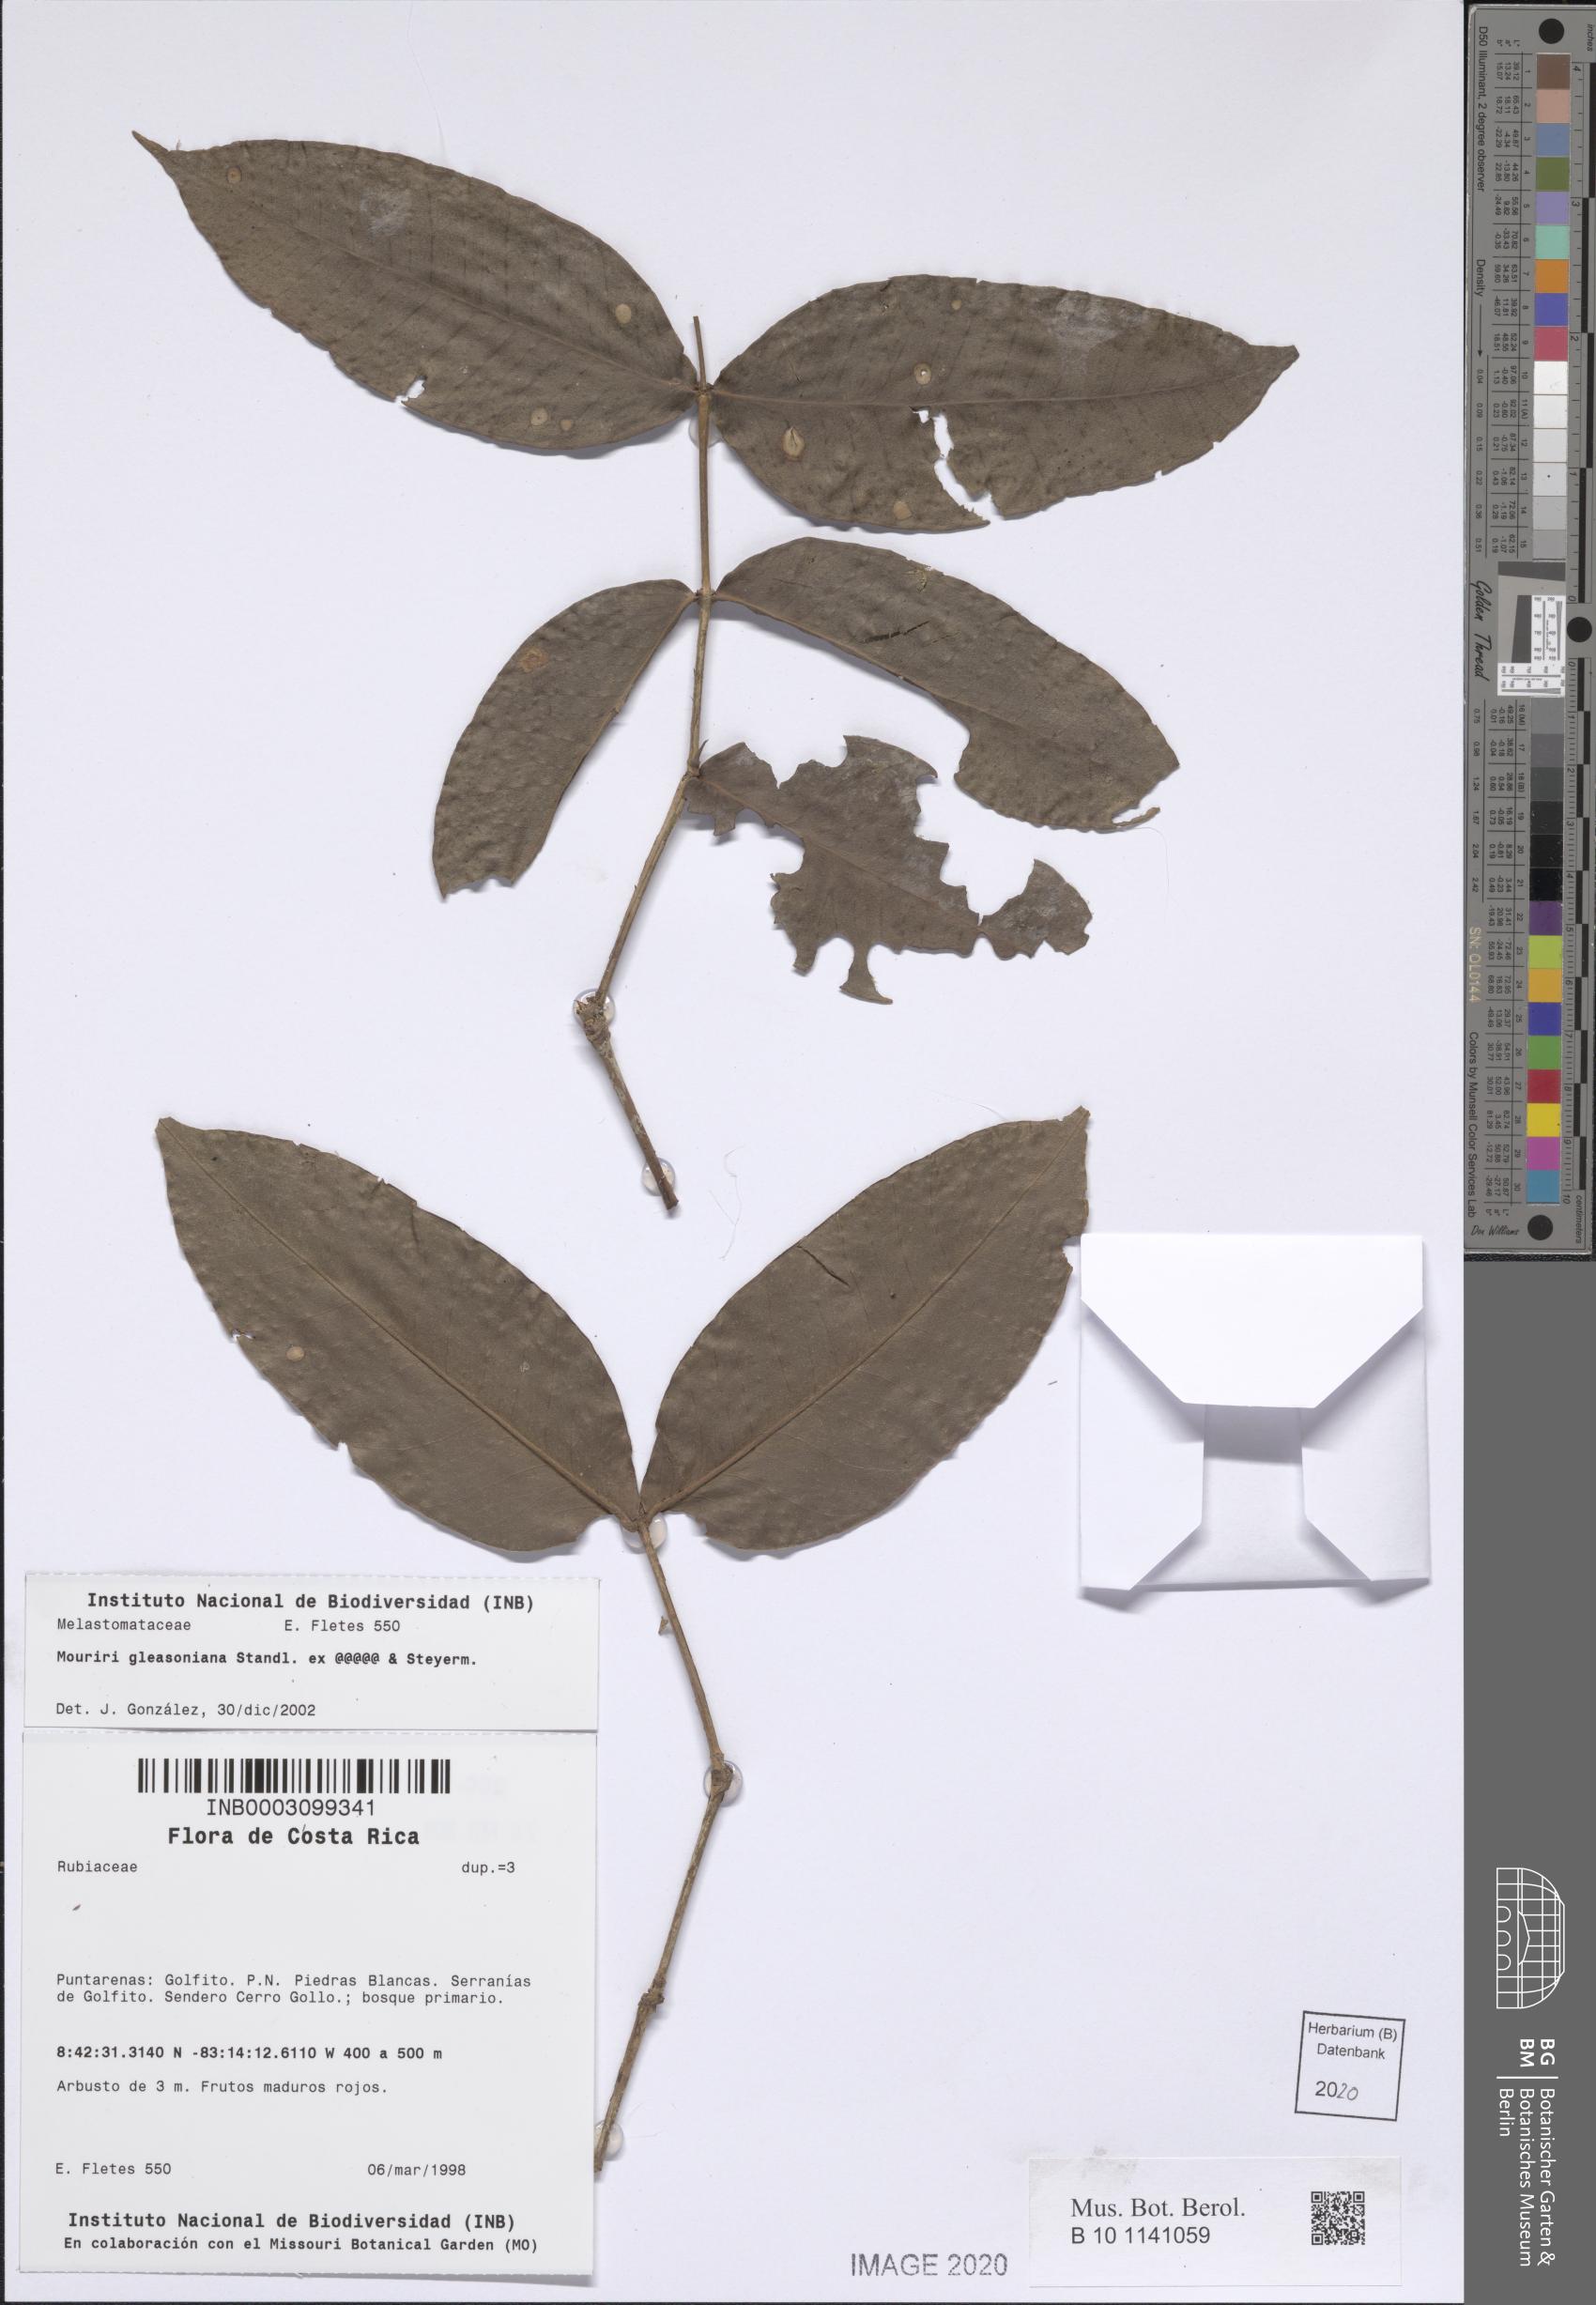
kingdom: Plantae
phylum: Tracheophyta
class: Magnoliopsida
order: Myrtales
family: Melastomataceae
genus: Mouriri
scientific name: Mouriri gleasoniana
